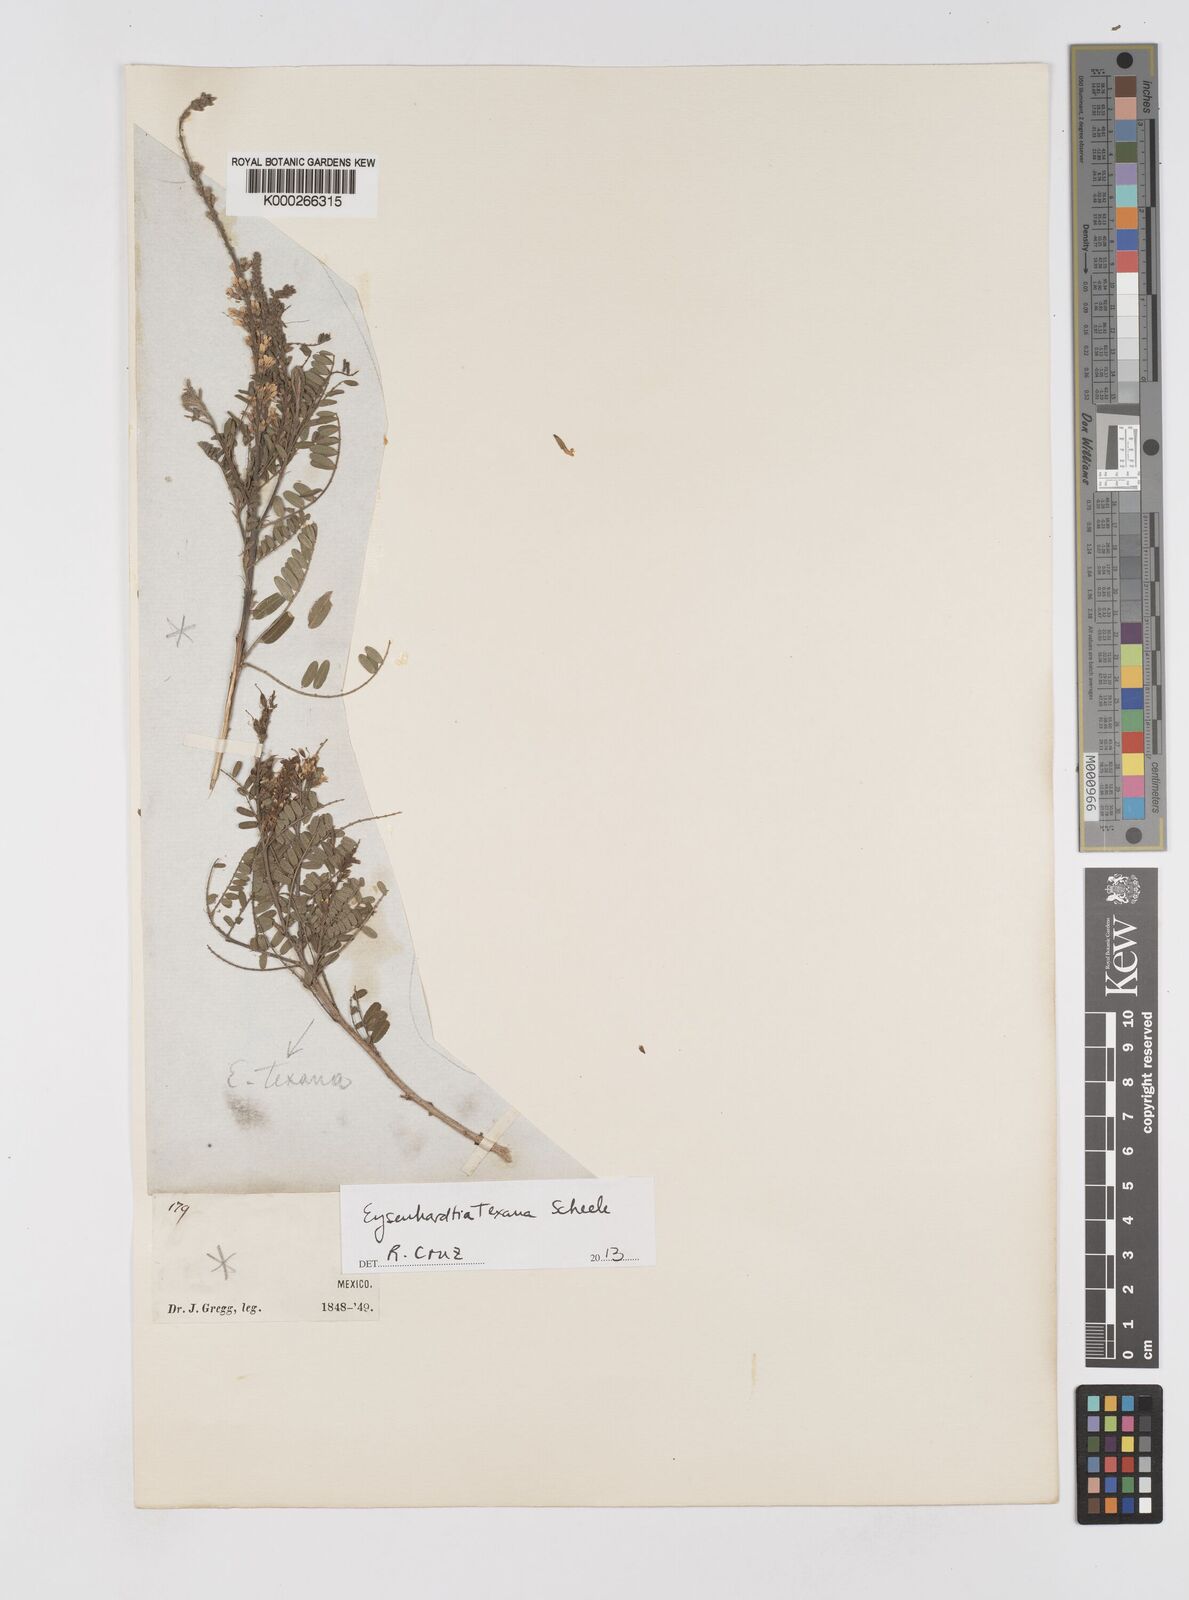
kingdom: Plantae
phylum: Tracheophyta
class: Magnoliopsida
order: Fabales
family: Fabaceae
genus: Eysenhardtia
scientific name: Eysenhardtia texana
